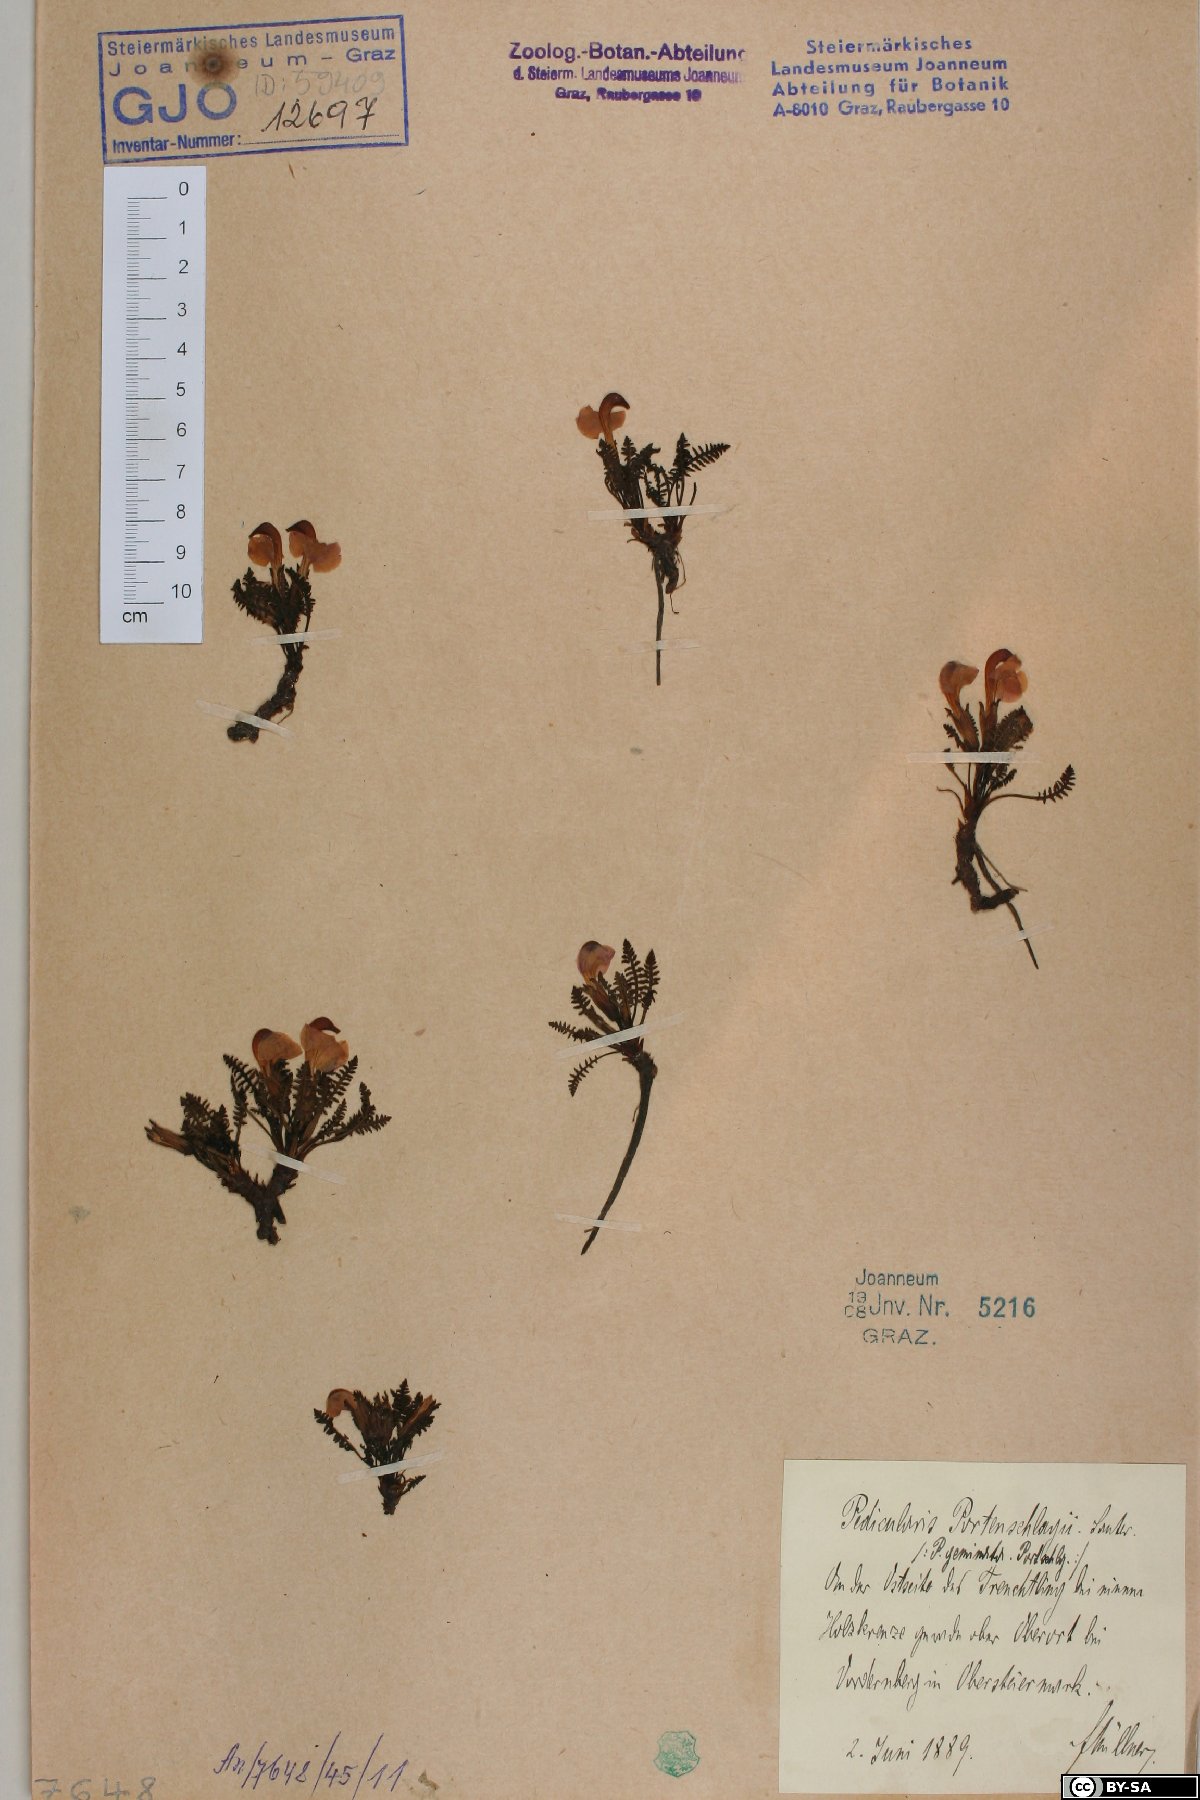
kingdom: Plantae
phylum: Tracheophyta
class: Magnoliopsida
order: Lamiales
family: Orobanchaceae
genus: Pedicularis
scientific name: Pedicularis portenschlagii
